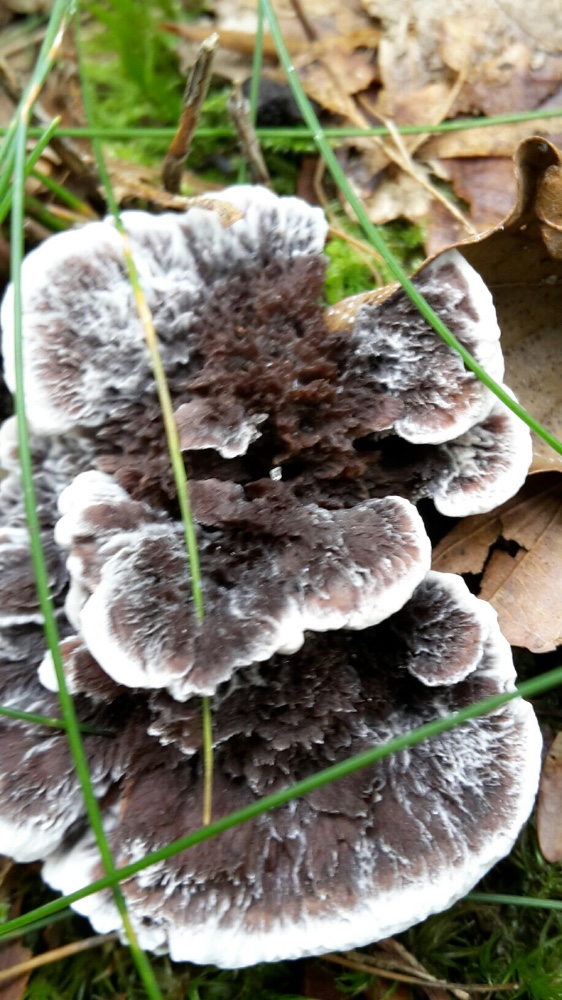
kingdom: Fungi
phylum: Basidiomycota
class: Agaricomycetes
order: Thelephorales
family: Thelephoraceae
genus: Phellodon
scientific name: Phellodon confluens
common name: pjaltet duftpigsvamp
